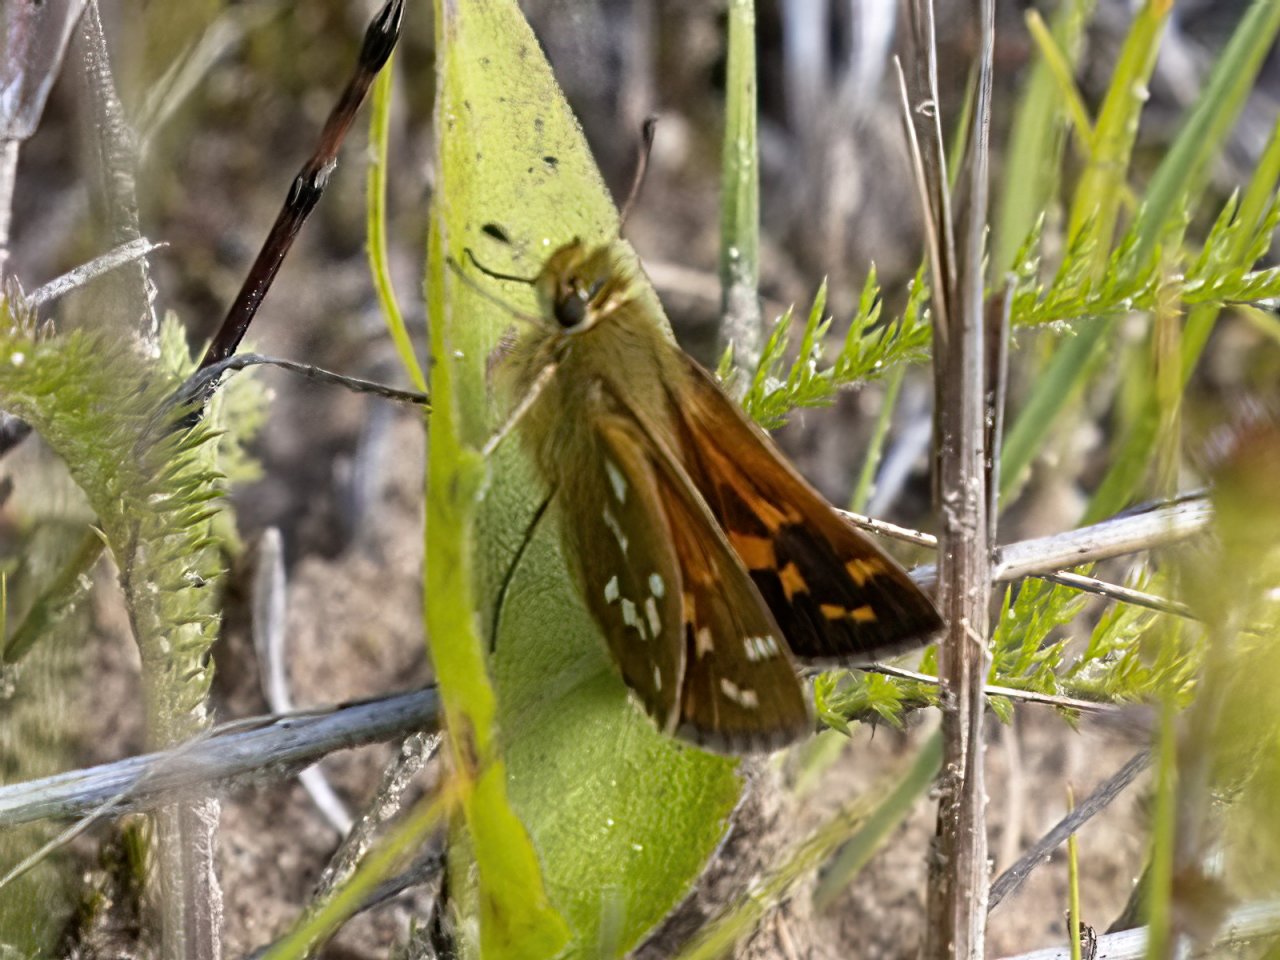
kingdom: Animalia
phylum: Arthropoda
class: Insecta
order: Lepidoptera
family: Hesperiidae
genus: Hesperia
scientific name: Hesperia comma
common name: Common Branded Skipper
